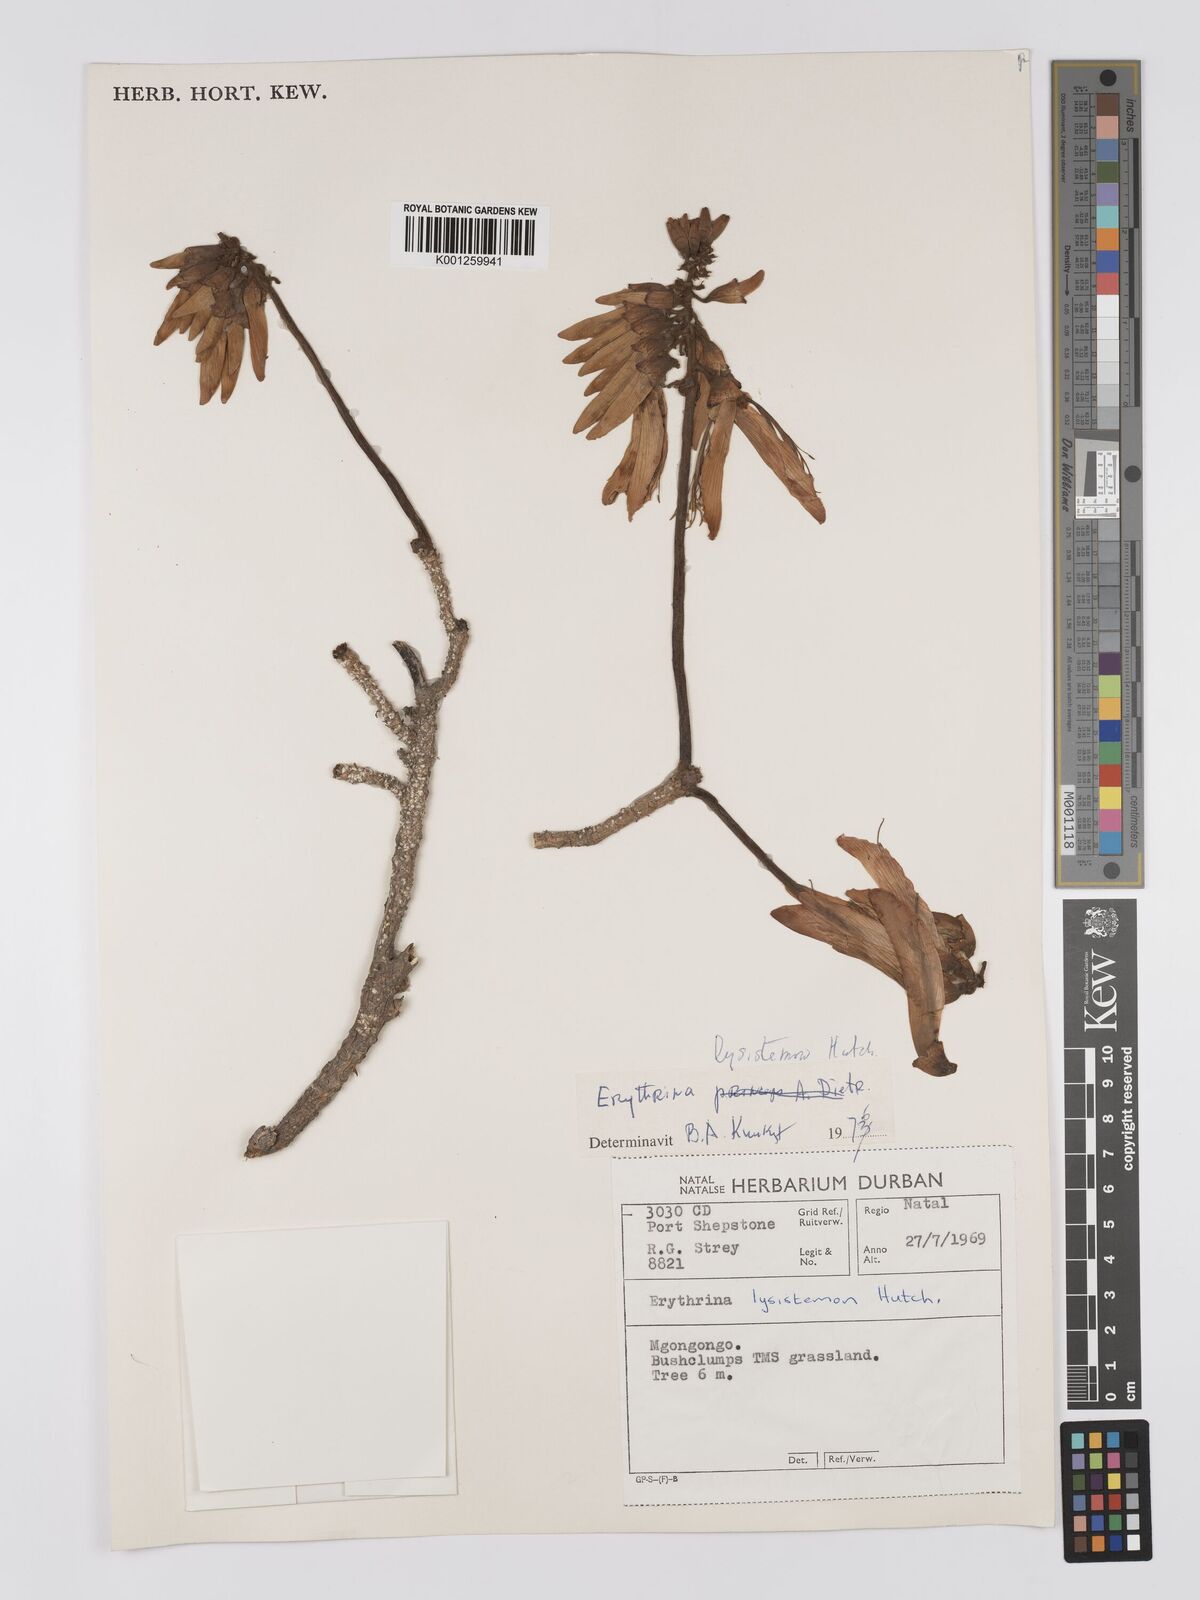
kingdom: Plantae
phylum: Tracheophyta
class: Magnoliopsida
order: Fabales
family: Fabaceae
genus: Erythrina
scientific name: Erythrina lysistemon
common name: Common coral tree
